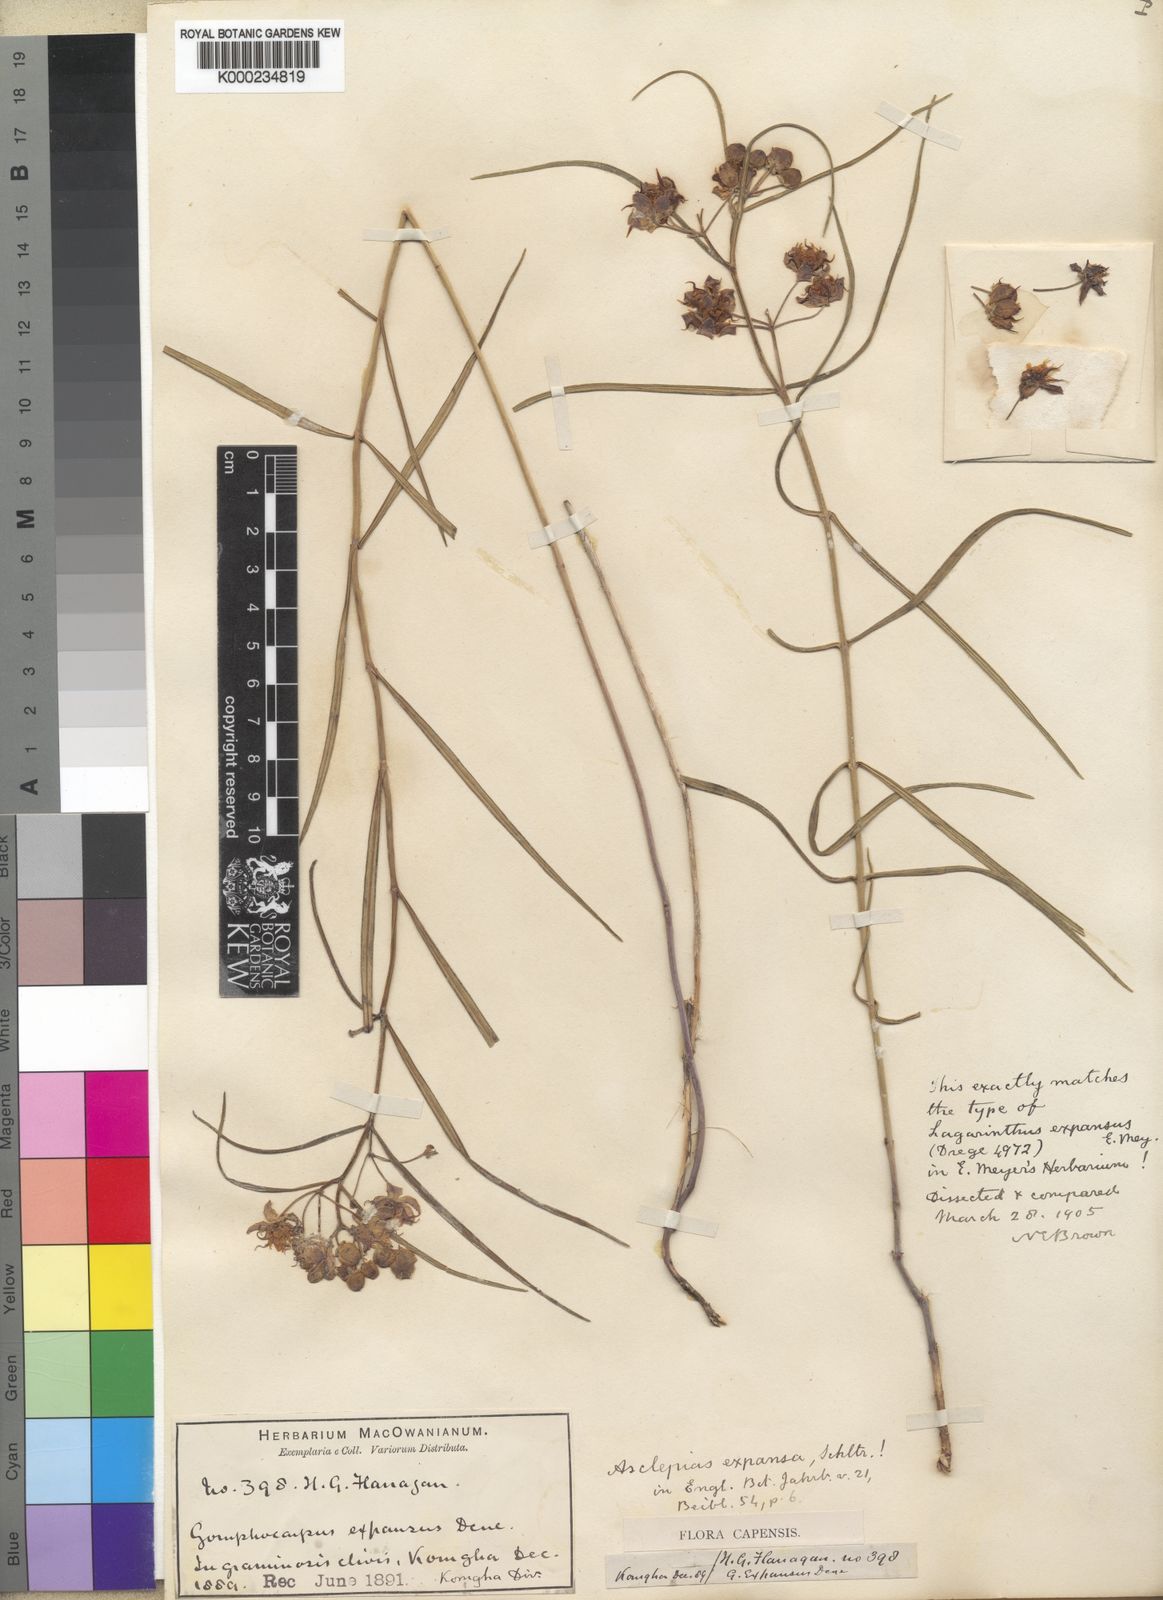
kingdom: Plantae
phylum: Tracheophyta
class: Magnoliopsida
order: Gentianales
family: Apocynaceae
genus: Asclepias
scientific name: Asclepias expansa
